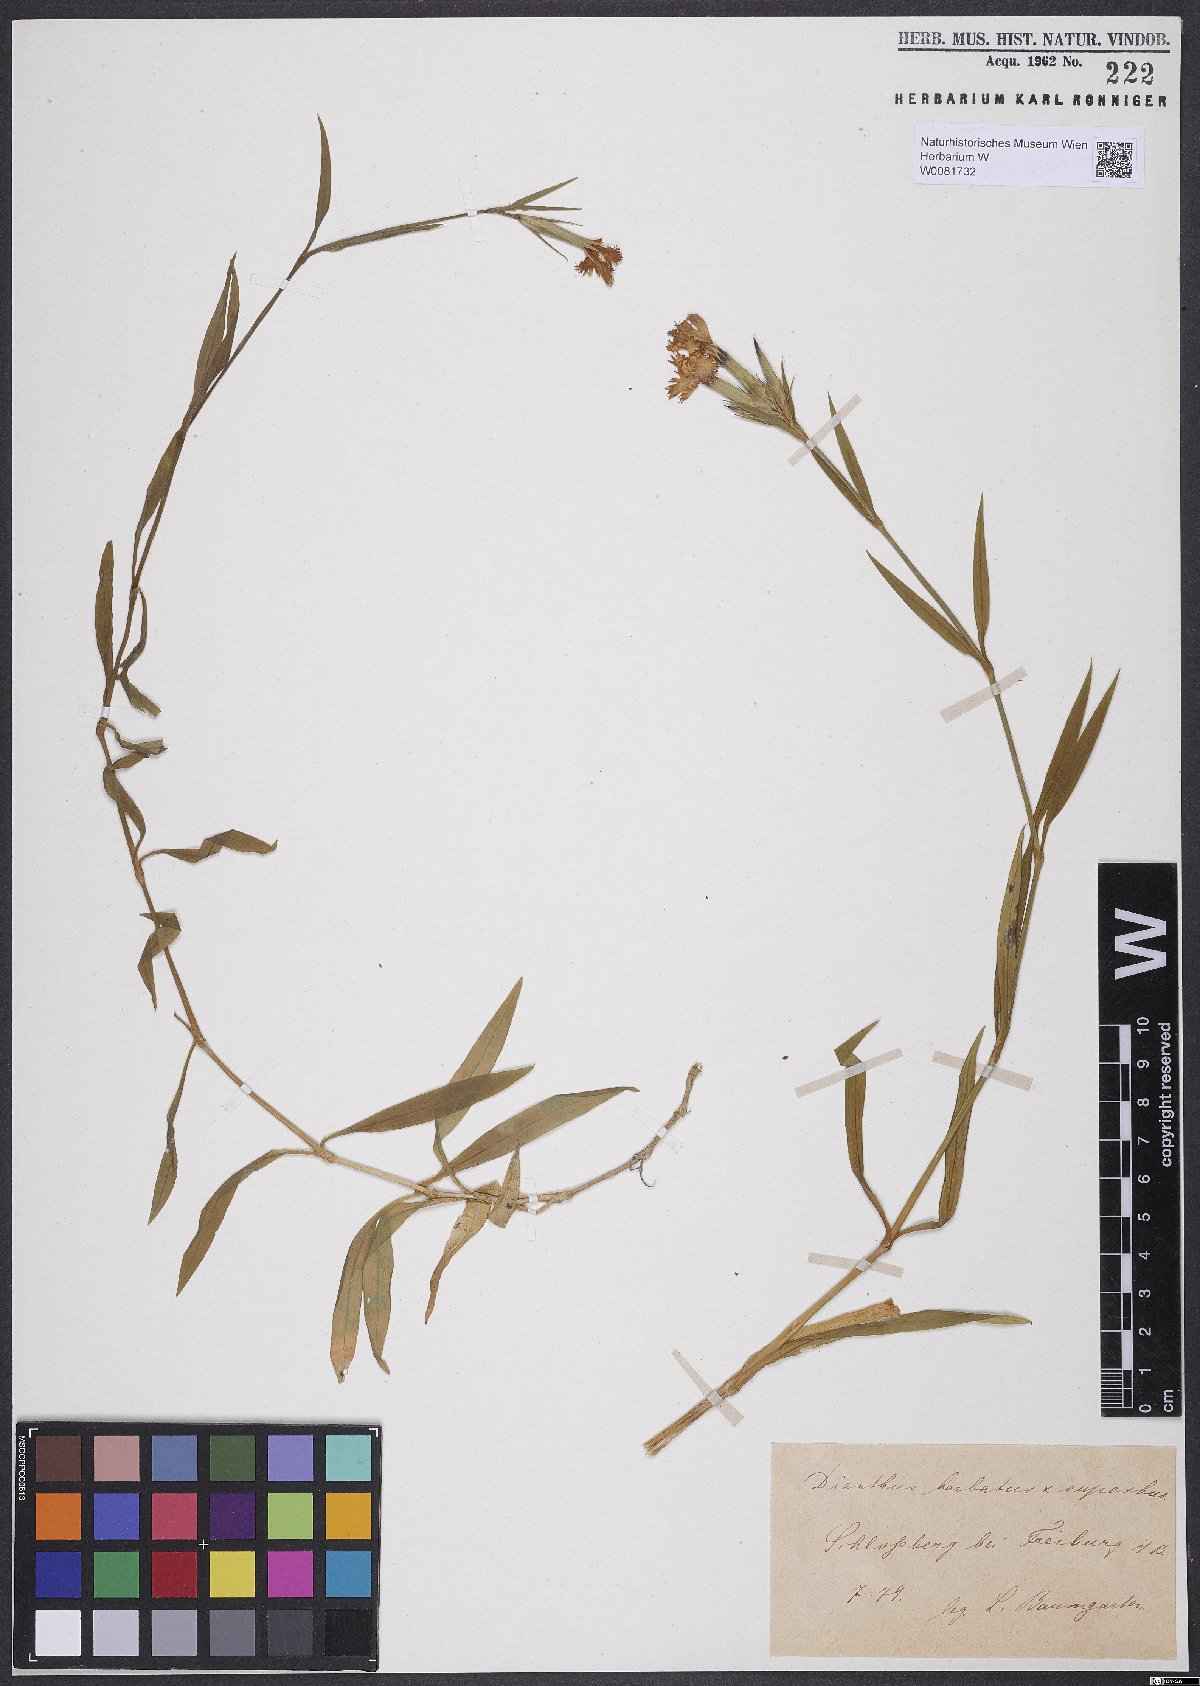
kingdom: Plantae
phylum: Tracheophyta
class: Magnoliopsida
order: Caryophyllales
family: Caryophyllaceae
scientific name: Caryophyllaceae
